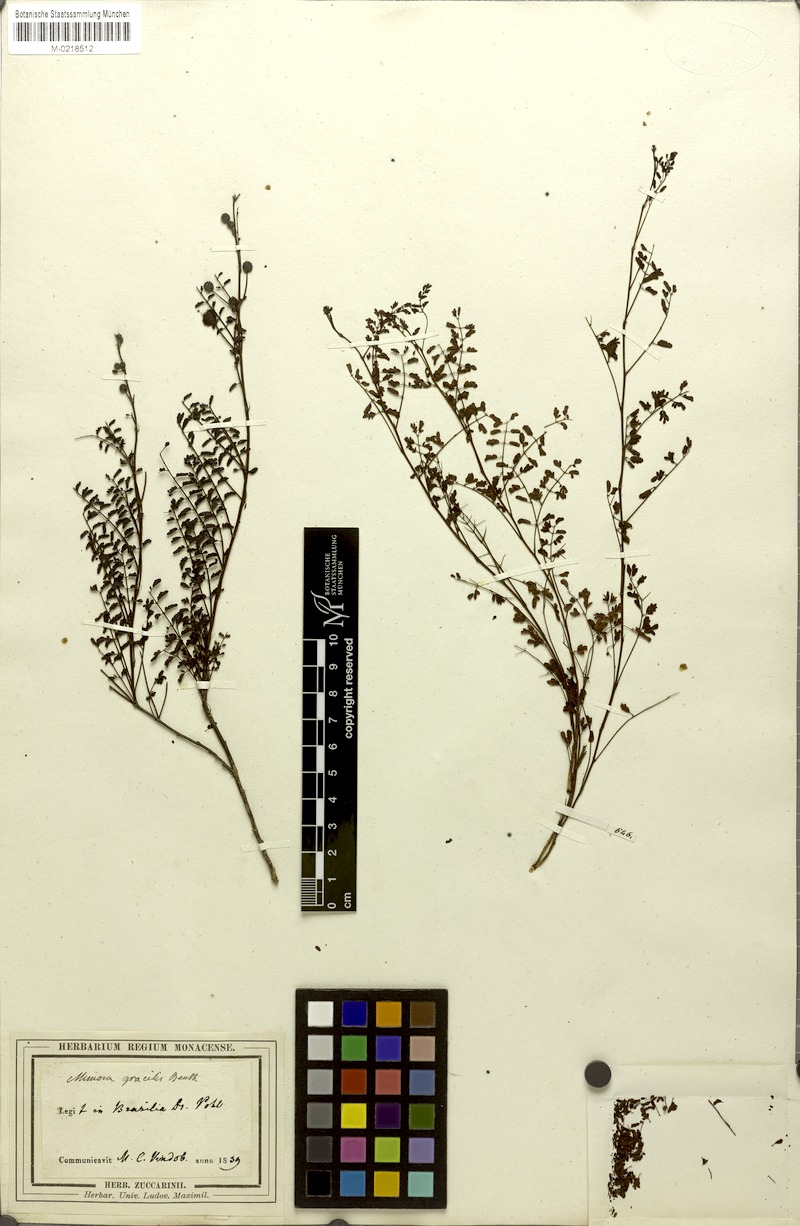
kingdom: Plantae
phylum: Tracheophyta
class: Magnoliopsida
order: Fabales
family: Fabaceae
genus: Mimosa
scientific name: Mimosa gracilis
